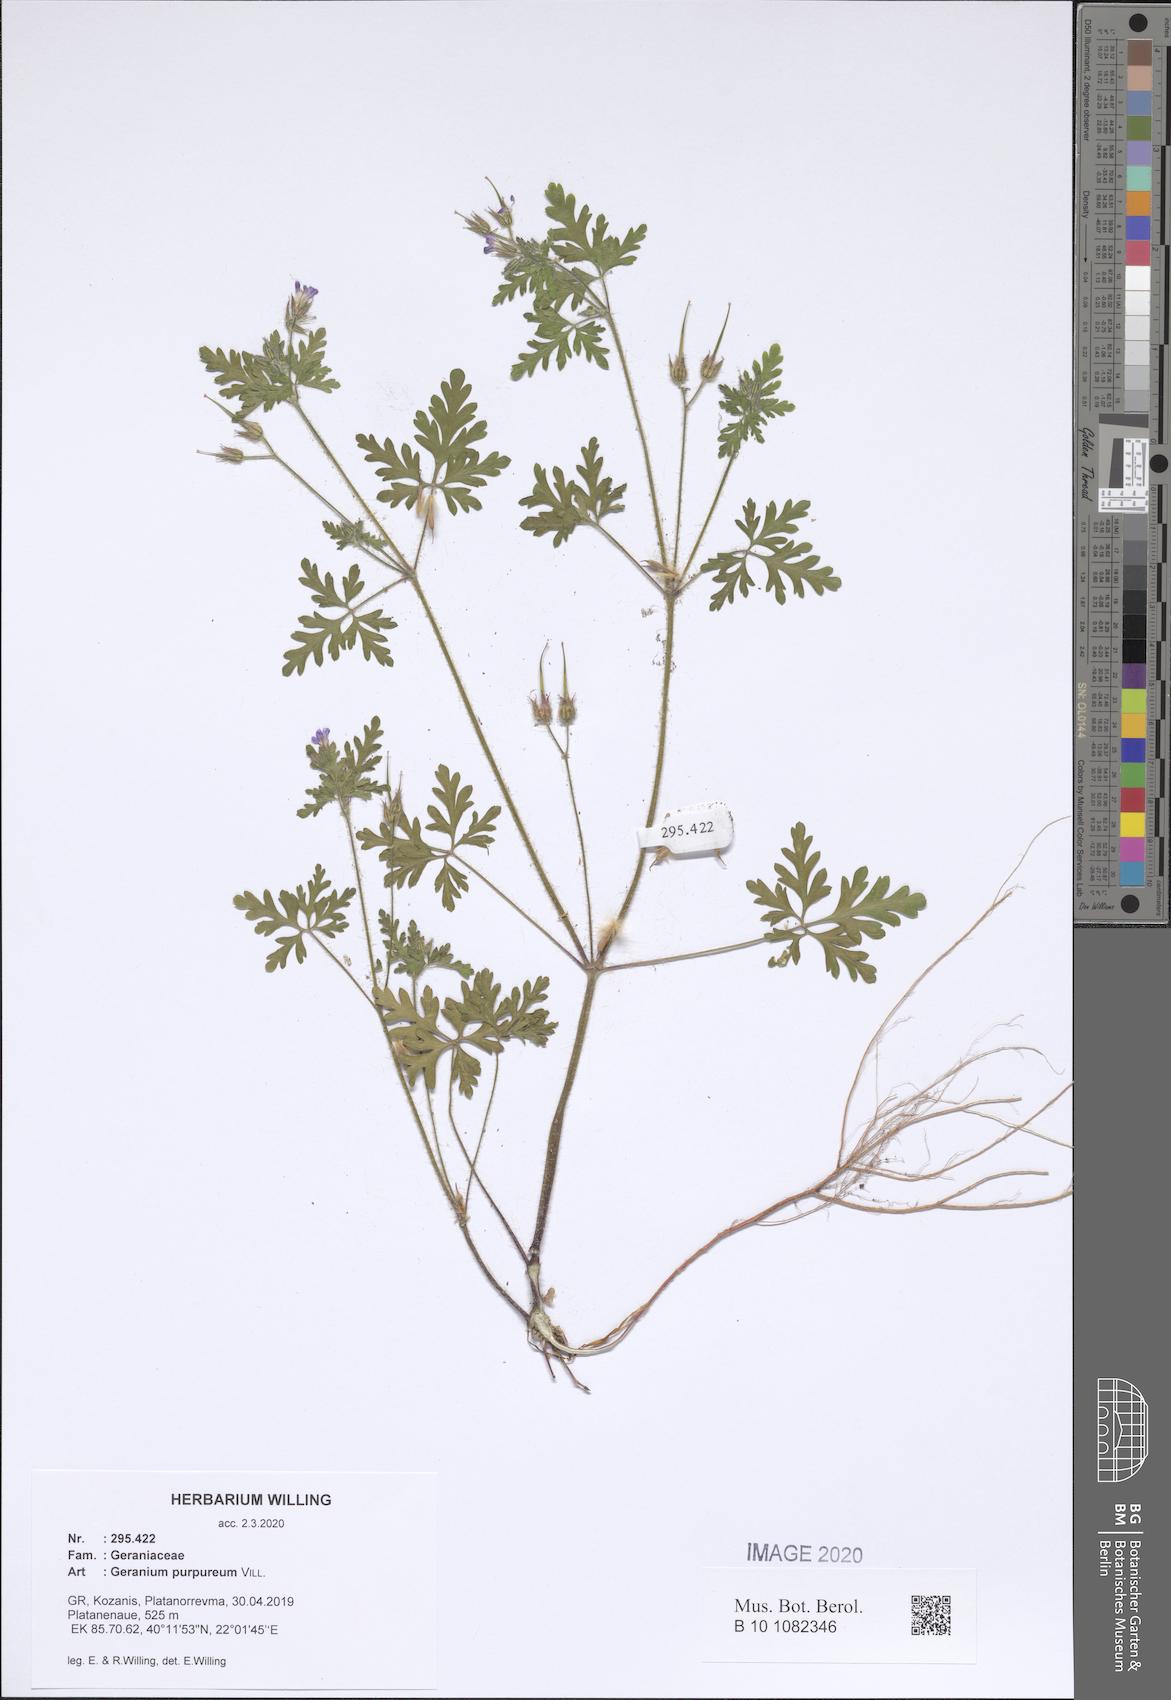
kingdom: Plantae
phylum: Tracheophyta
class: Magnoliopsida
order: Geraniales
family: Geraniaceae
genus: Geranium
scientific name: Geranium purpureum
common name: Little-robin
